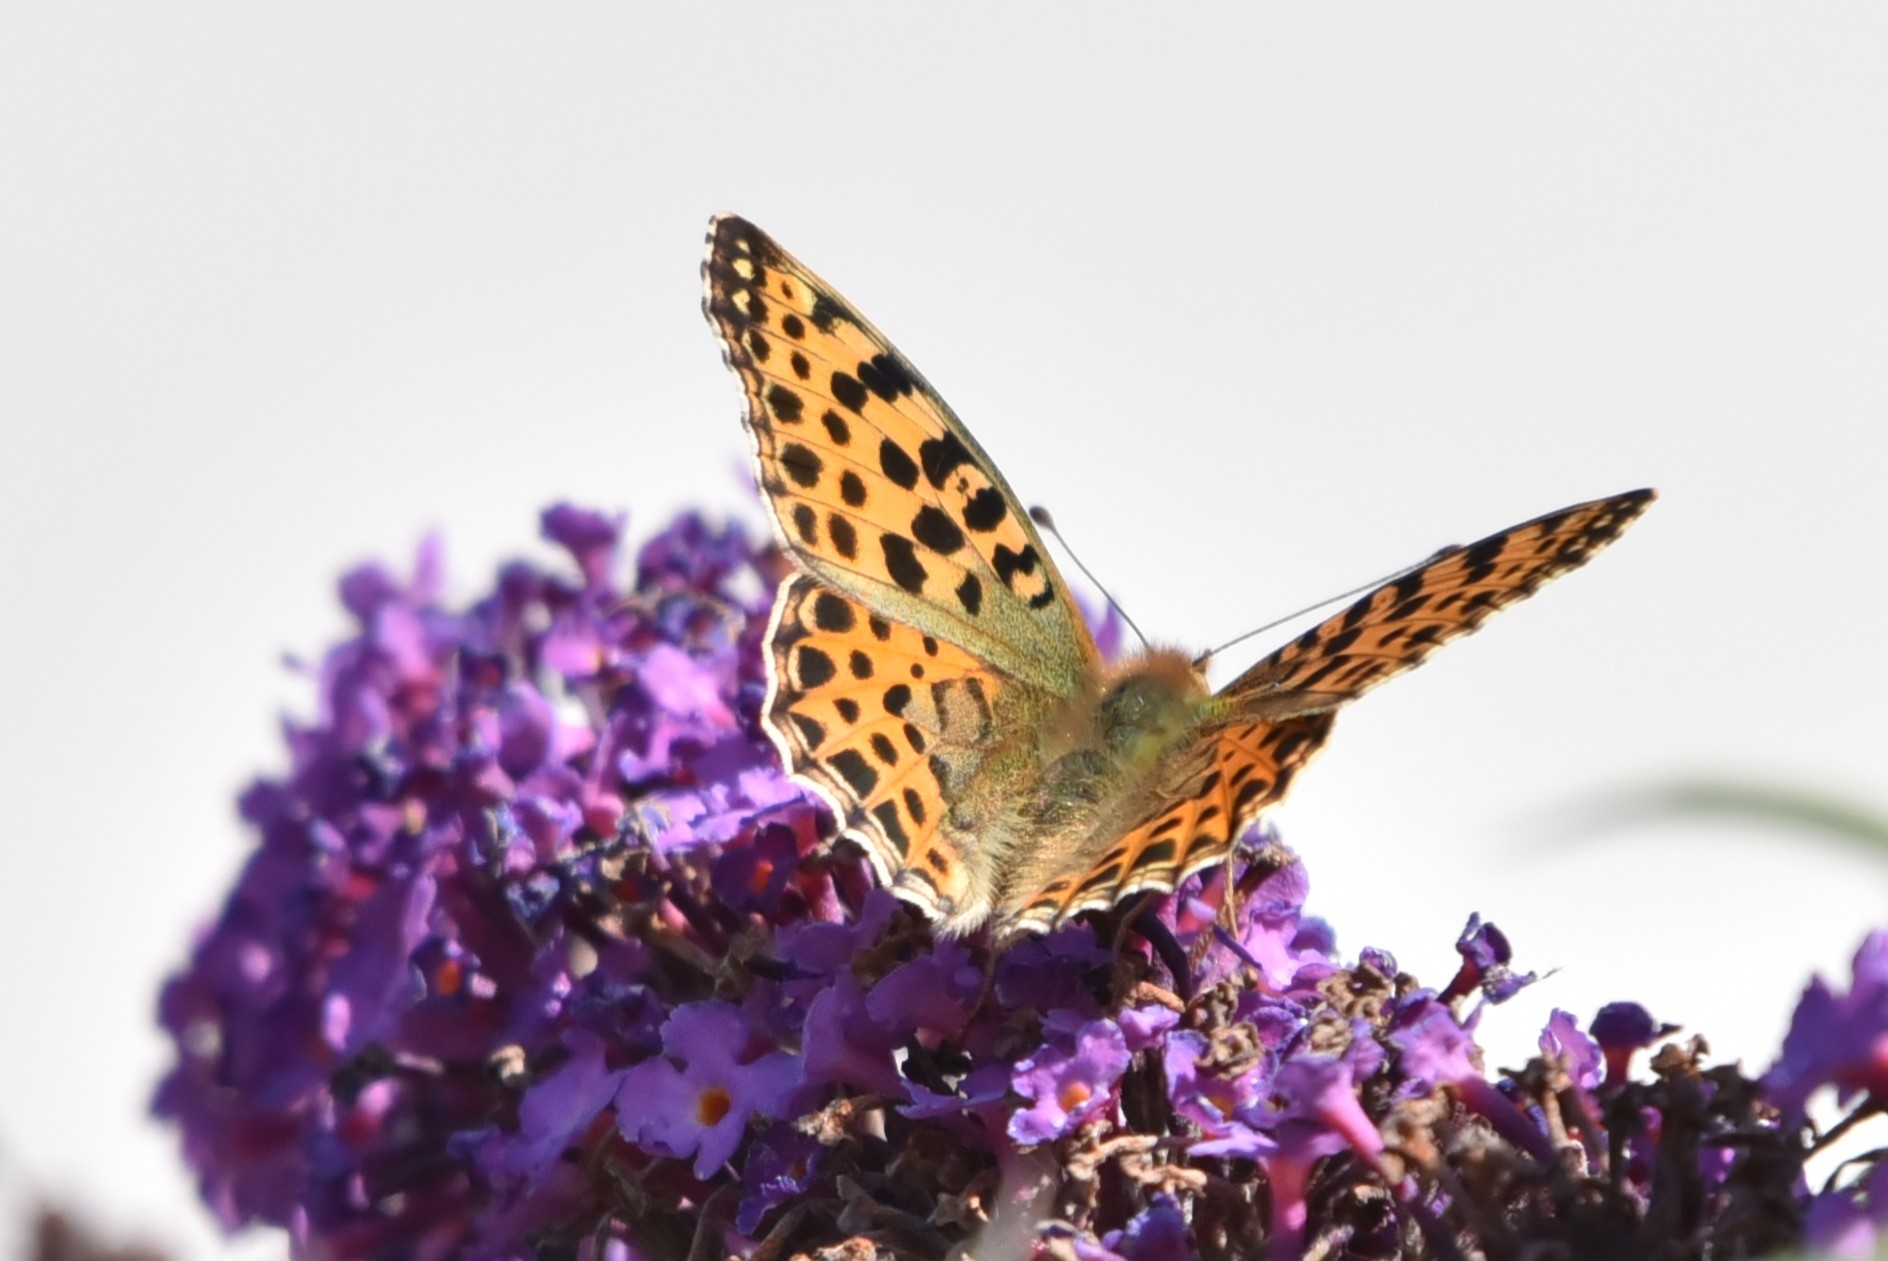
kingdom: Animalia
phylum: Arthropoda
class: Insecta
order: Lepidoptera
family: Nymphalidae
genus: Issoria
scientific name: Issoria lathonia
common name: Storplettet perlemorsommerfugl
